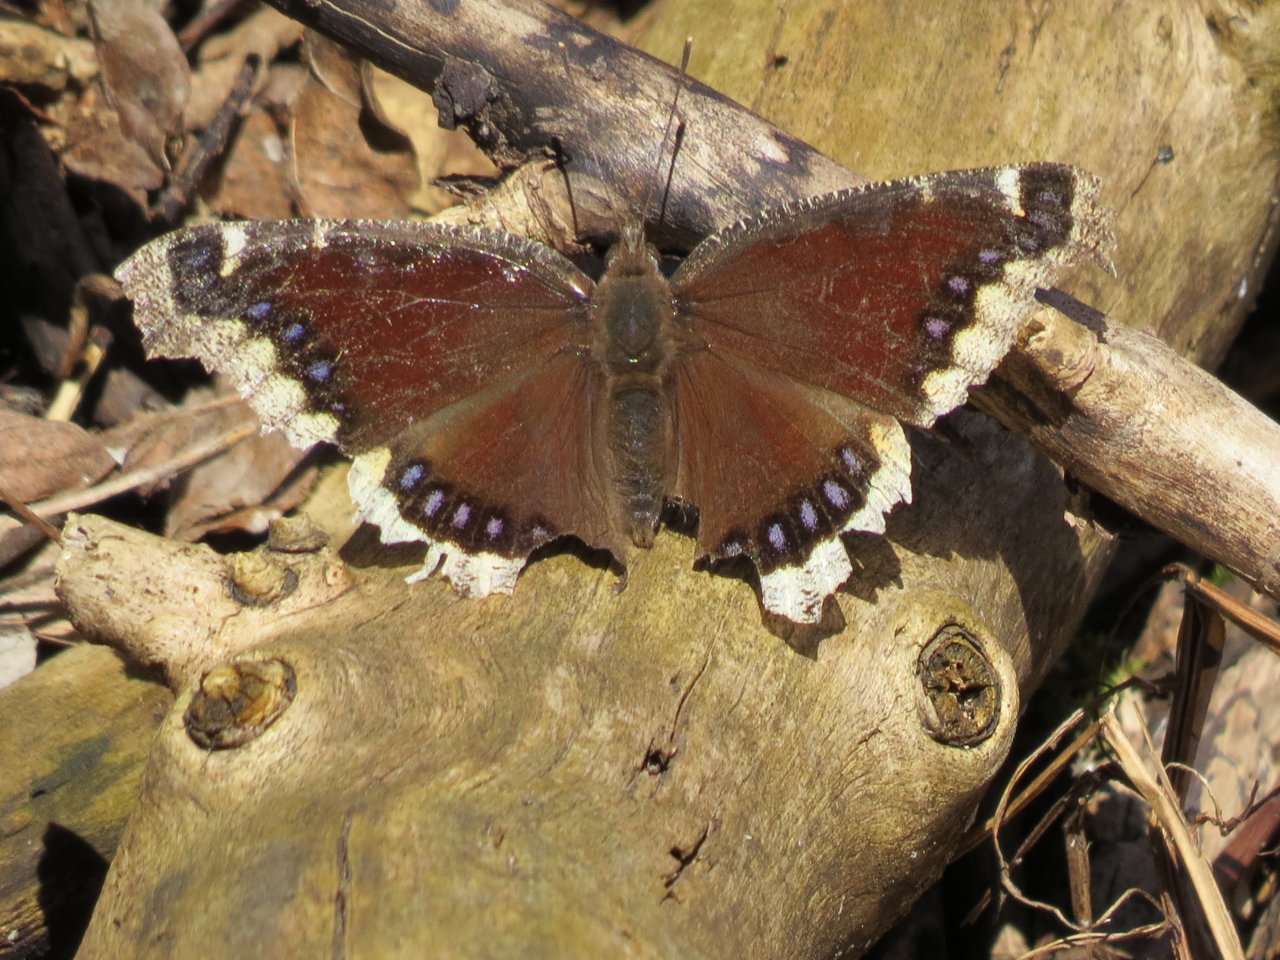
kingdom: Animalia
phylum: Arthropoda
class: Insecta
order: Lepidoptera
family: Nymphalidae
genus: Nymphalis
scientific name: Nymphalis antiopa
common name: Mourning Cloak
